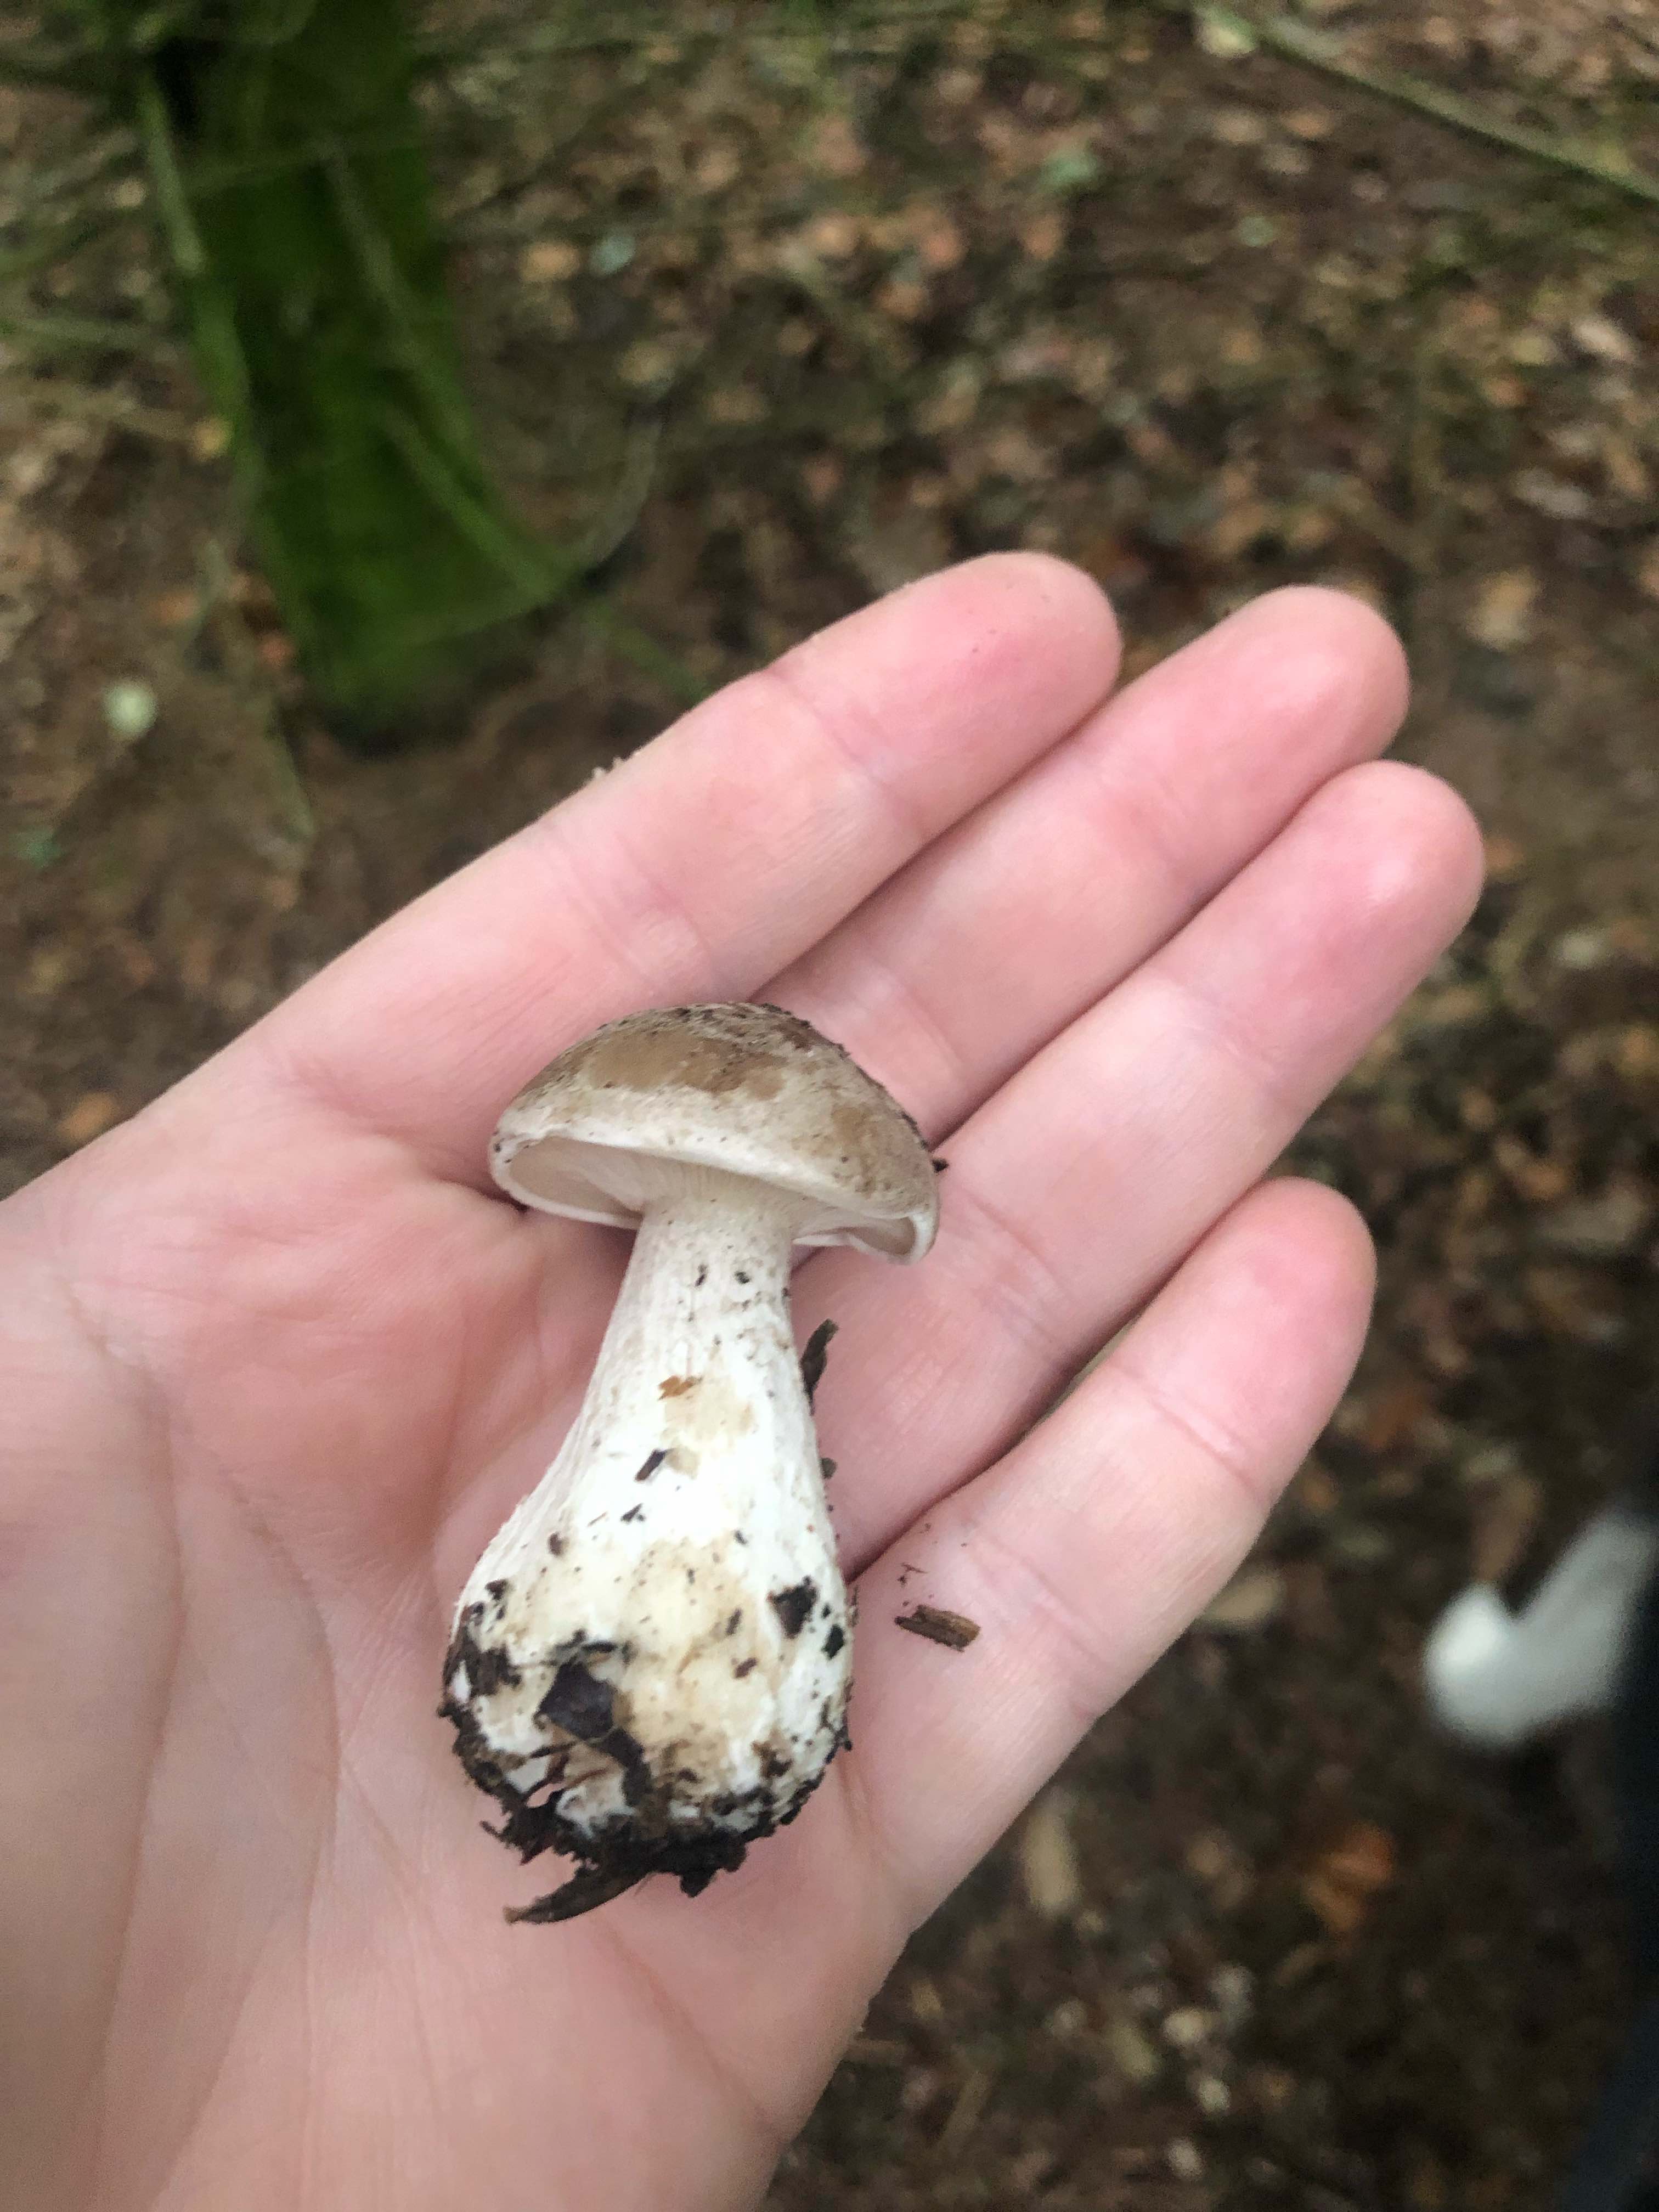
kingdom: Fungi
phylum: Basidiomycota
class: Agaricomycetes
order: Agaricales
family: Tricholomataceae
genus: Clitocybe
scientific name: Clitocybe nebularis
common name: tåge-tragthat
